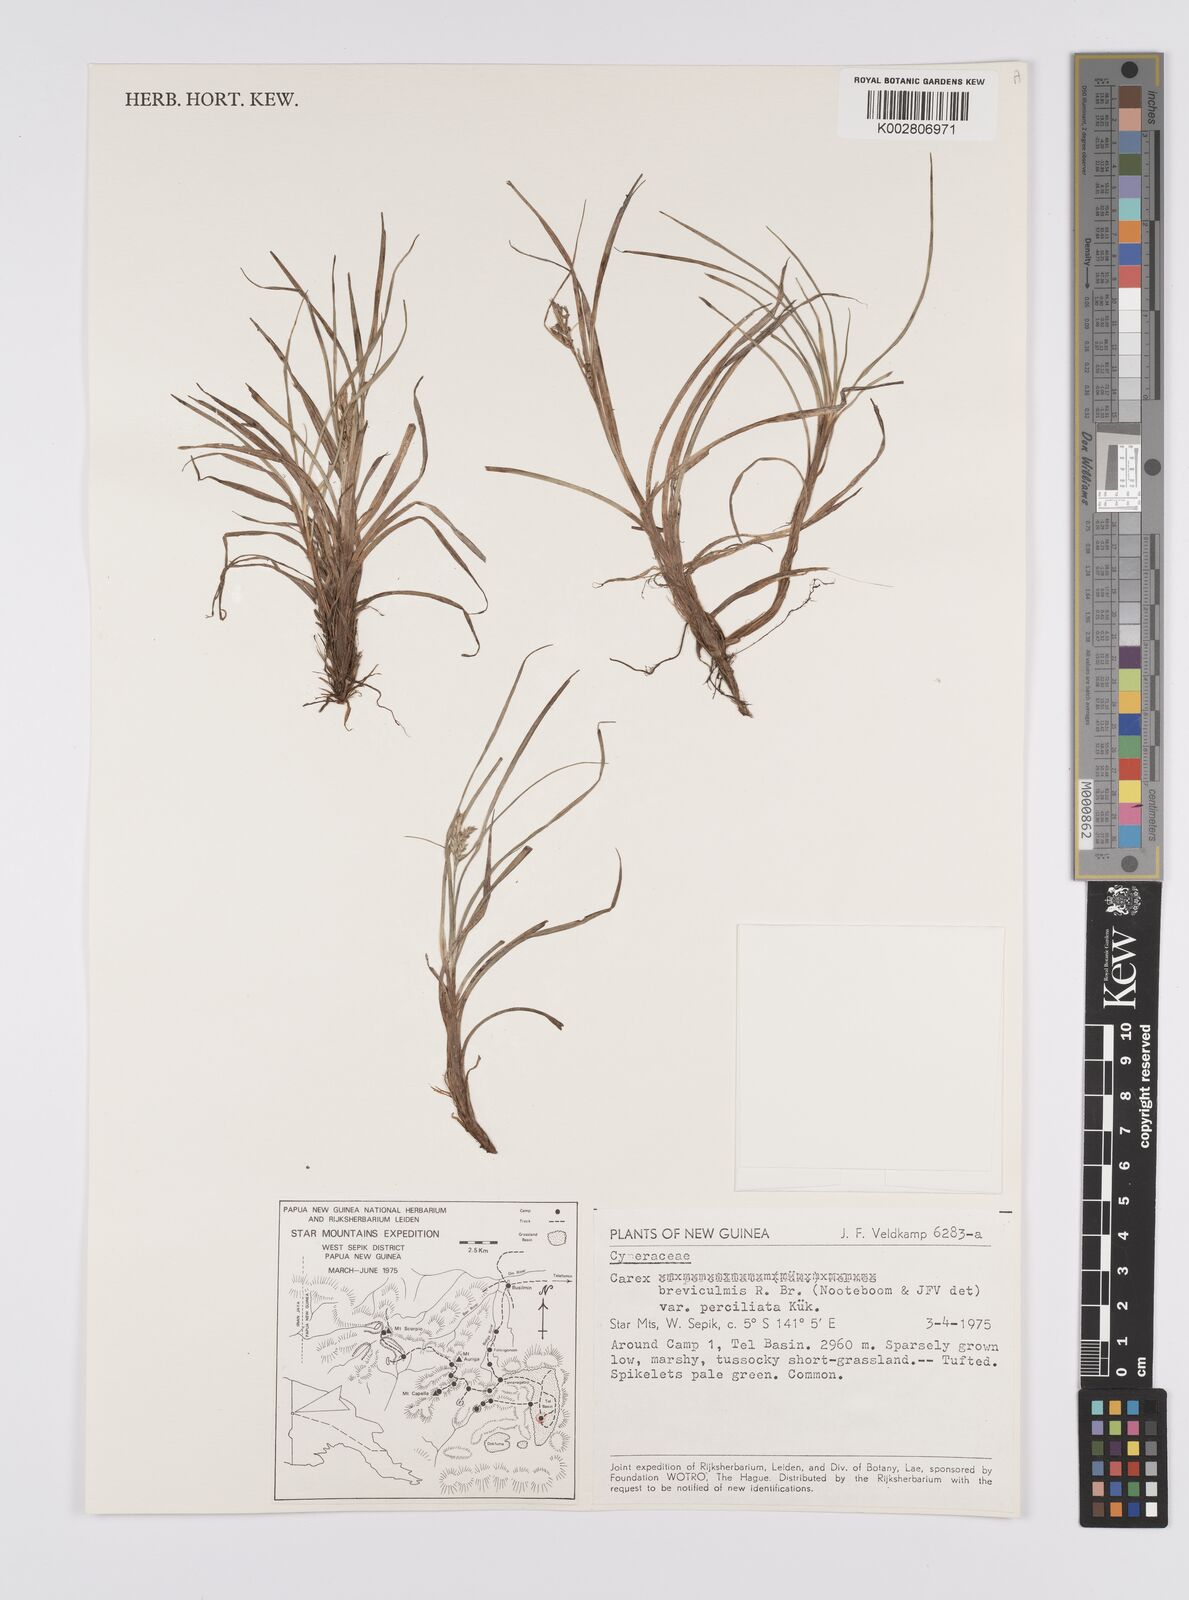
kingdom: Plantae
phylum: Tracheophyta
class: Liliopsida
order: Poales
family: Cyperaceae
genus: Carex
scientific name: Carex breviculmis
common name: Asian shortstem sedge
